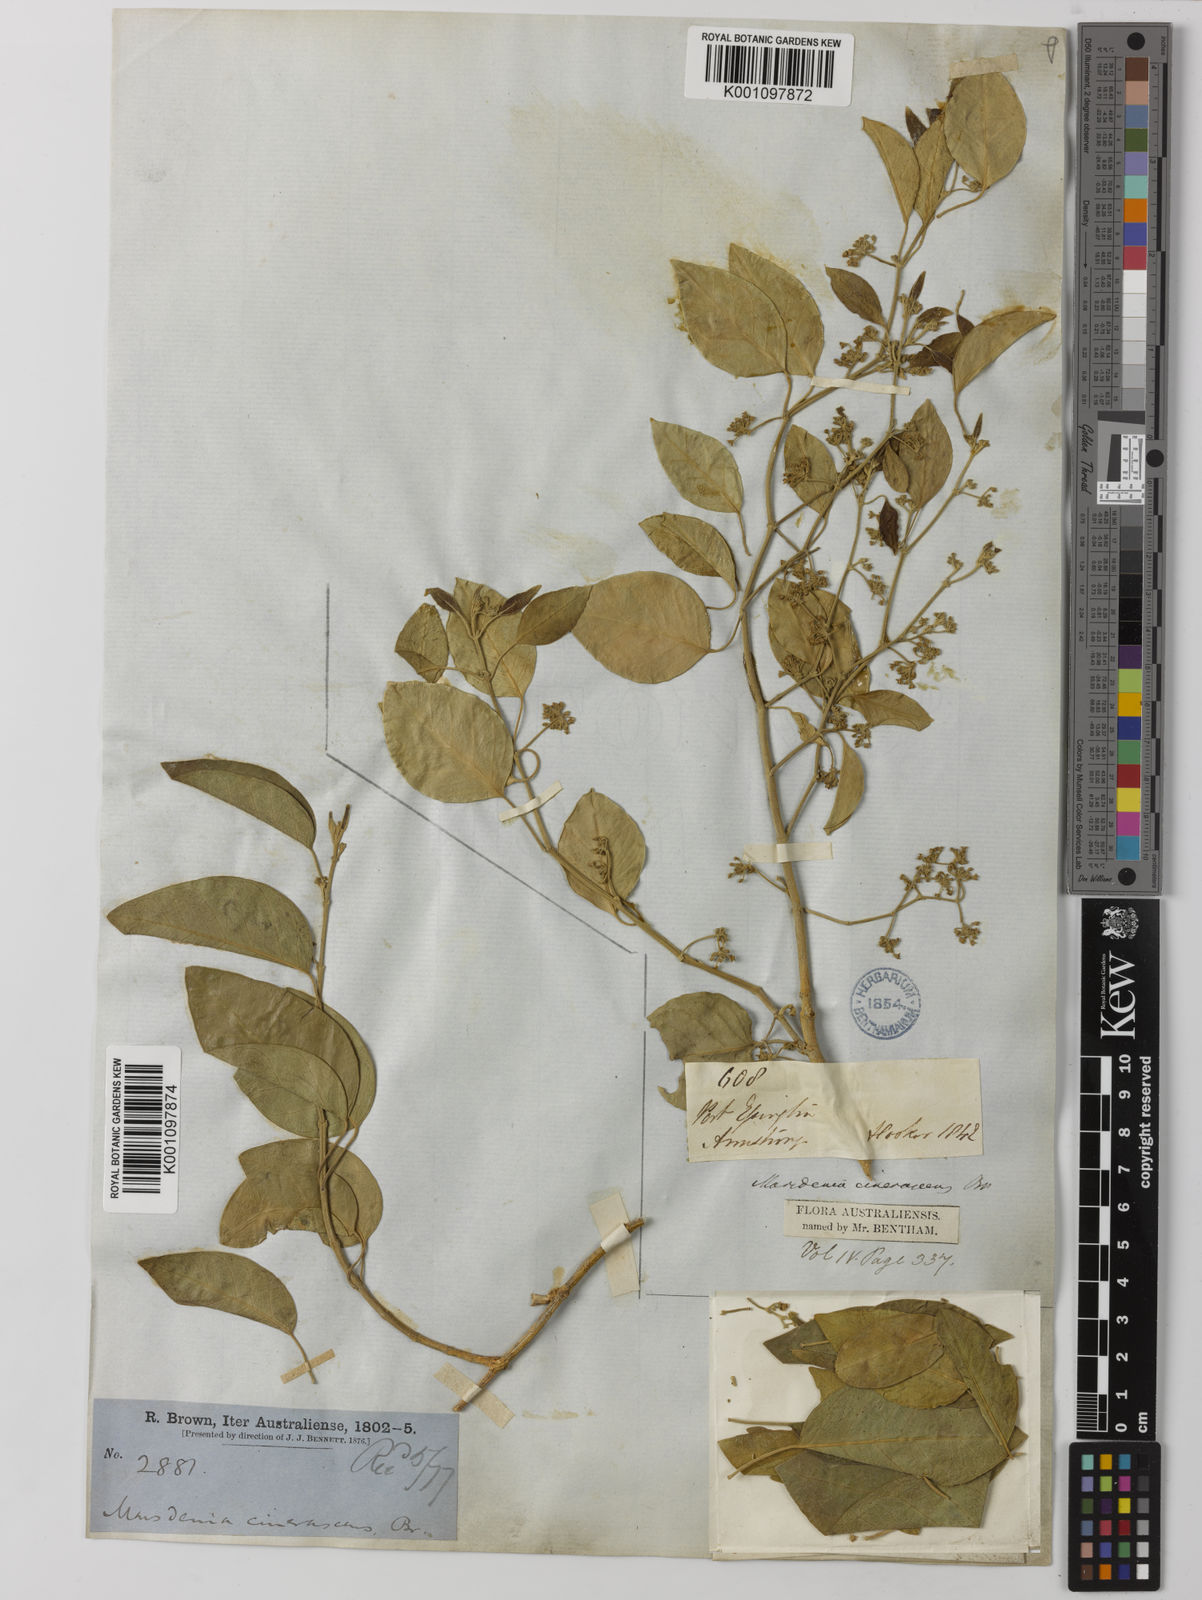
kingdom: Plantae
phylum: Tracheophyta
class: Magnoliopsida
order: Gentianales
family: Apocynaceae
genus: Vincetoxicum
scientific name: Vincetoxicum cinerascens
